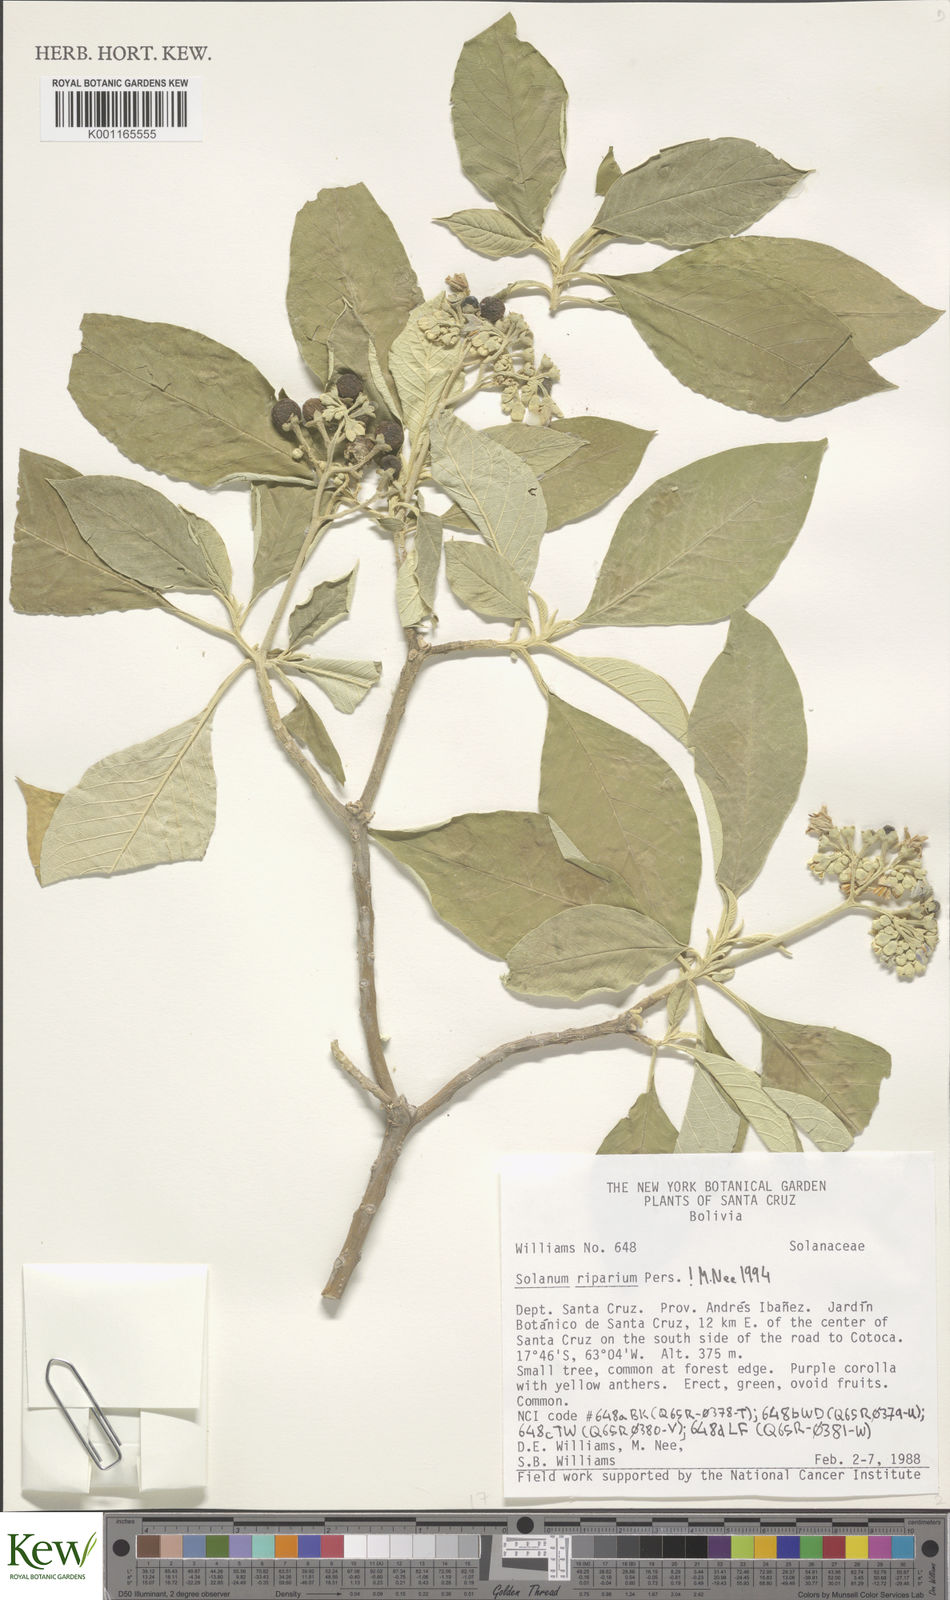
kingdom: Plantae
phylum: Tracheophyta
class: Magnoliopsida
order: Solanales
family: Solanaceae
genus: Solanum
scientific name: Solanum riparium
